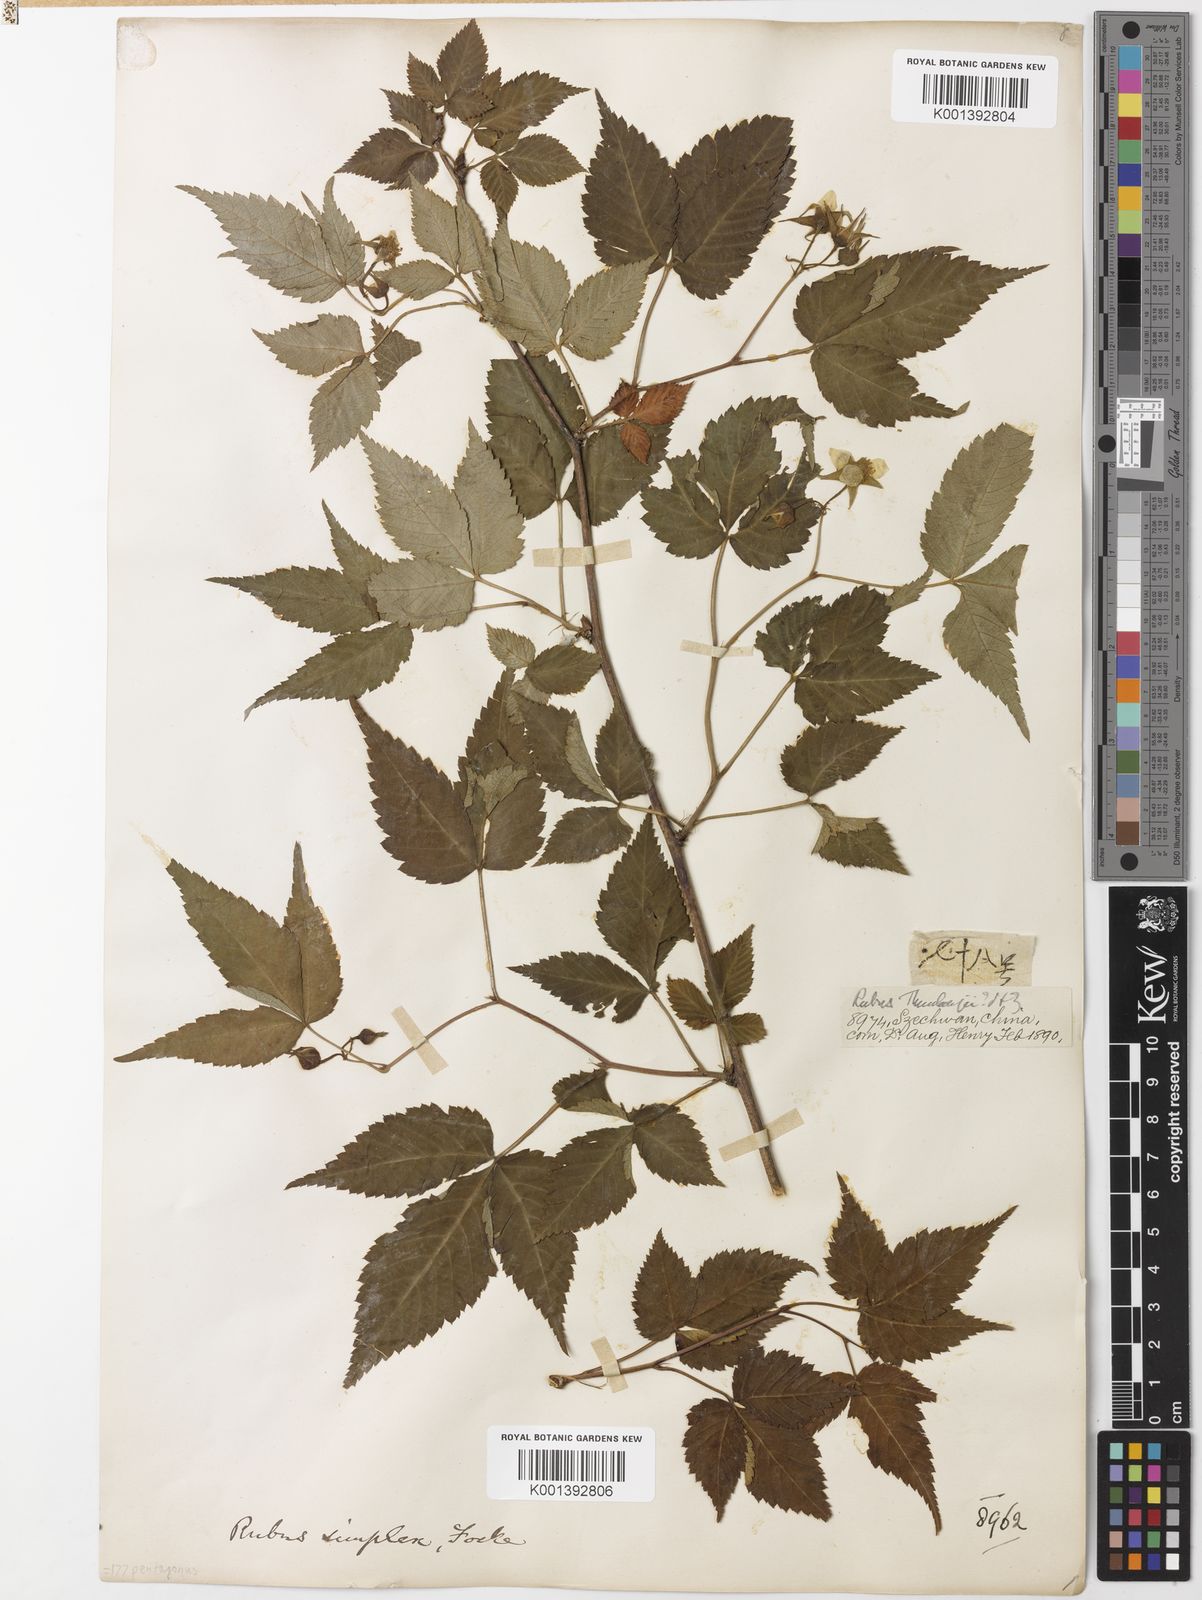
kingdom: Plantae
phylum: Tracheophyta
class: Magnoliopsida
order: Rosales
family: Rosaceae
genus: Rubus
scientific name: Rubus simplex
